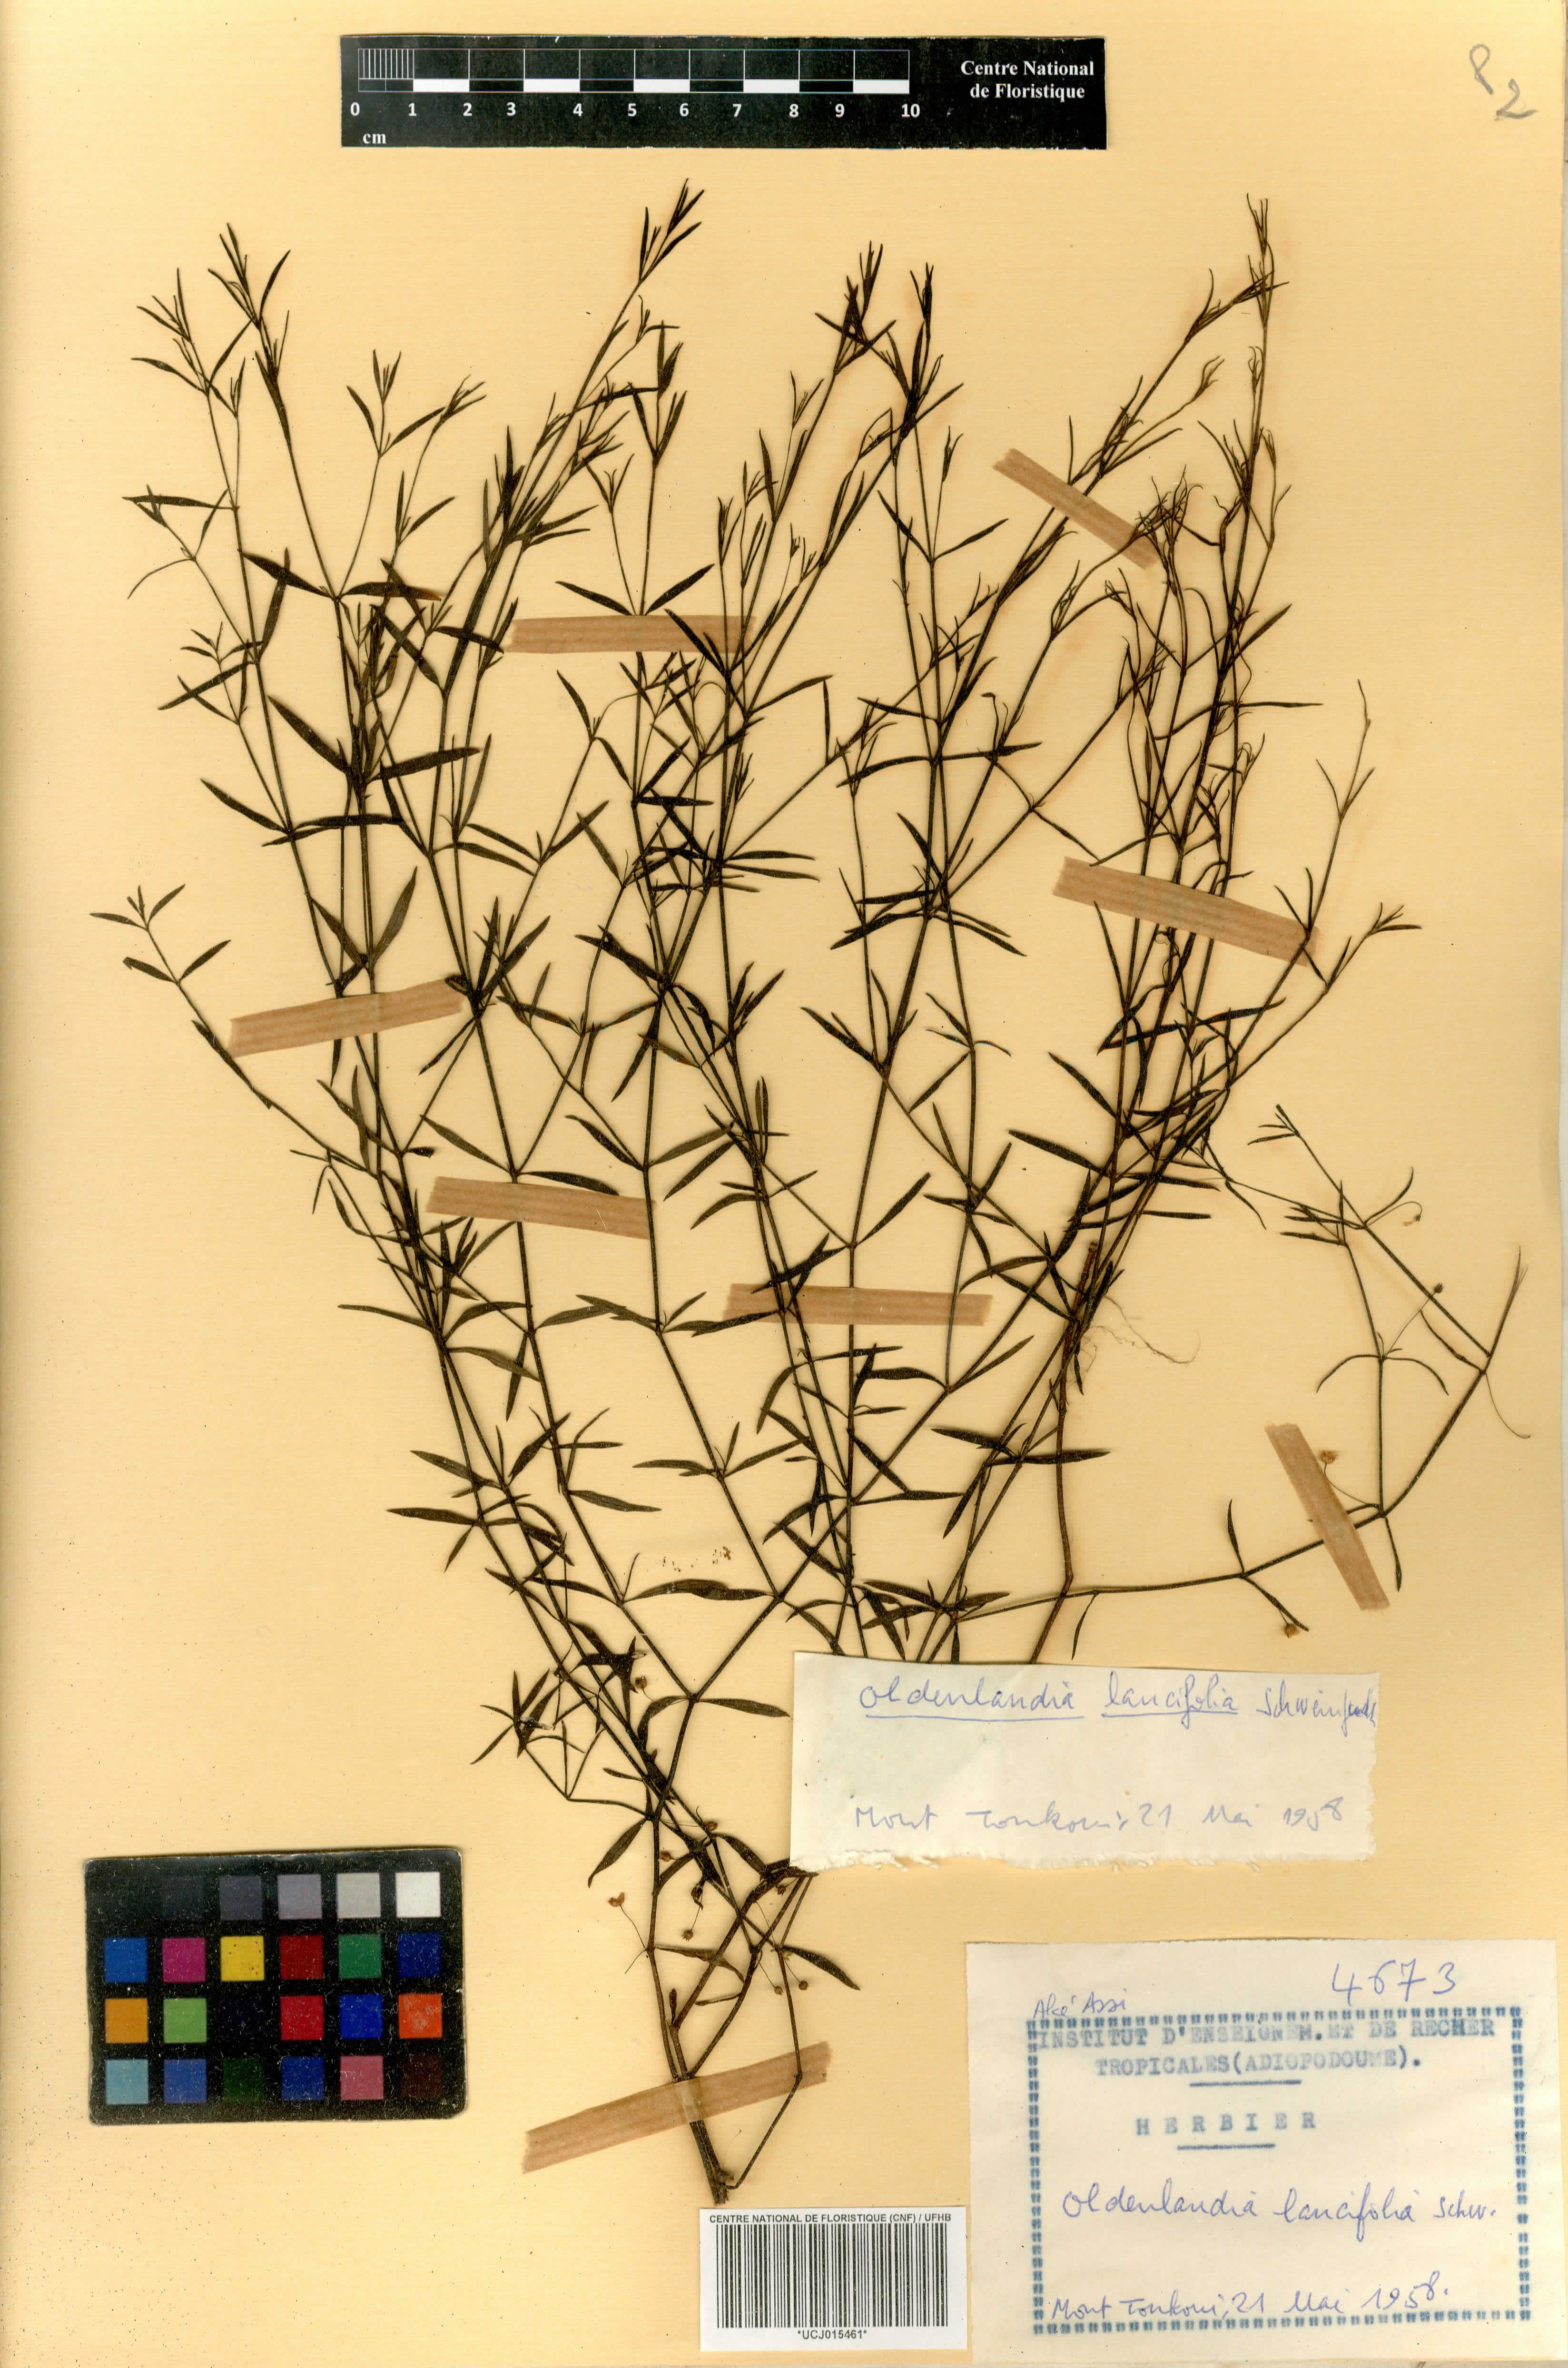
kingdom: Plantae
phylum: Tracheophyta
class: Magnoliopsida
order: Gentianales
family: Rubiaceae
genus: Oldenlandia
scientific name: Oldenlandia lancifolia
